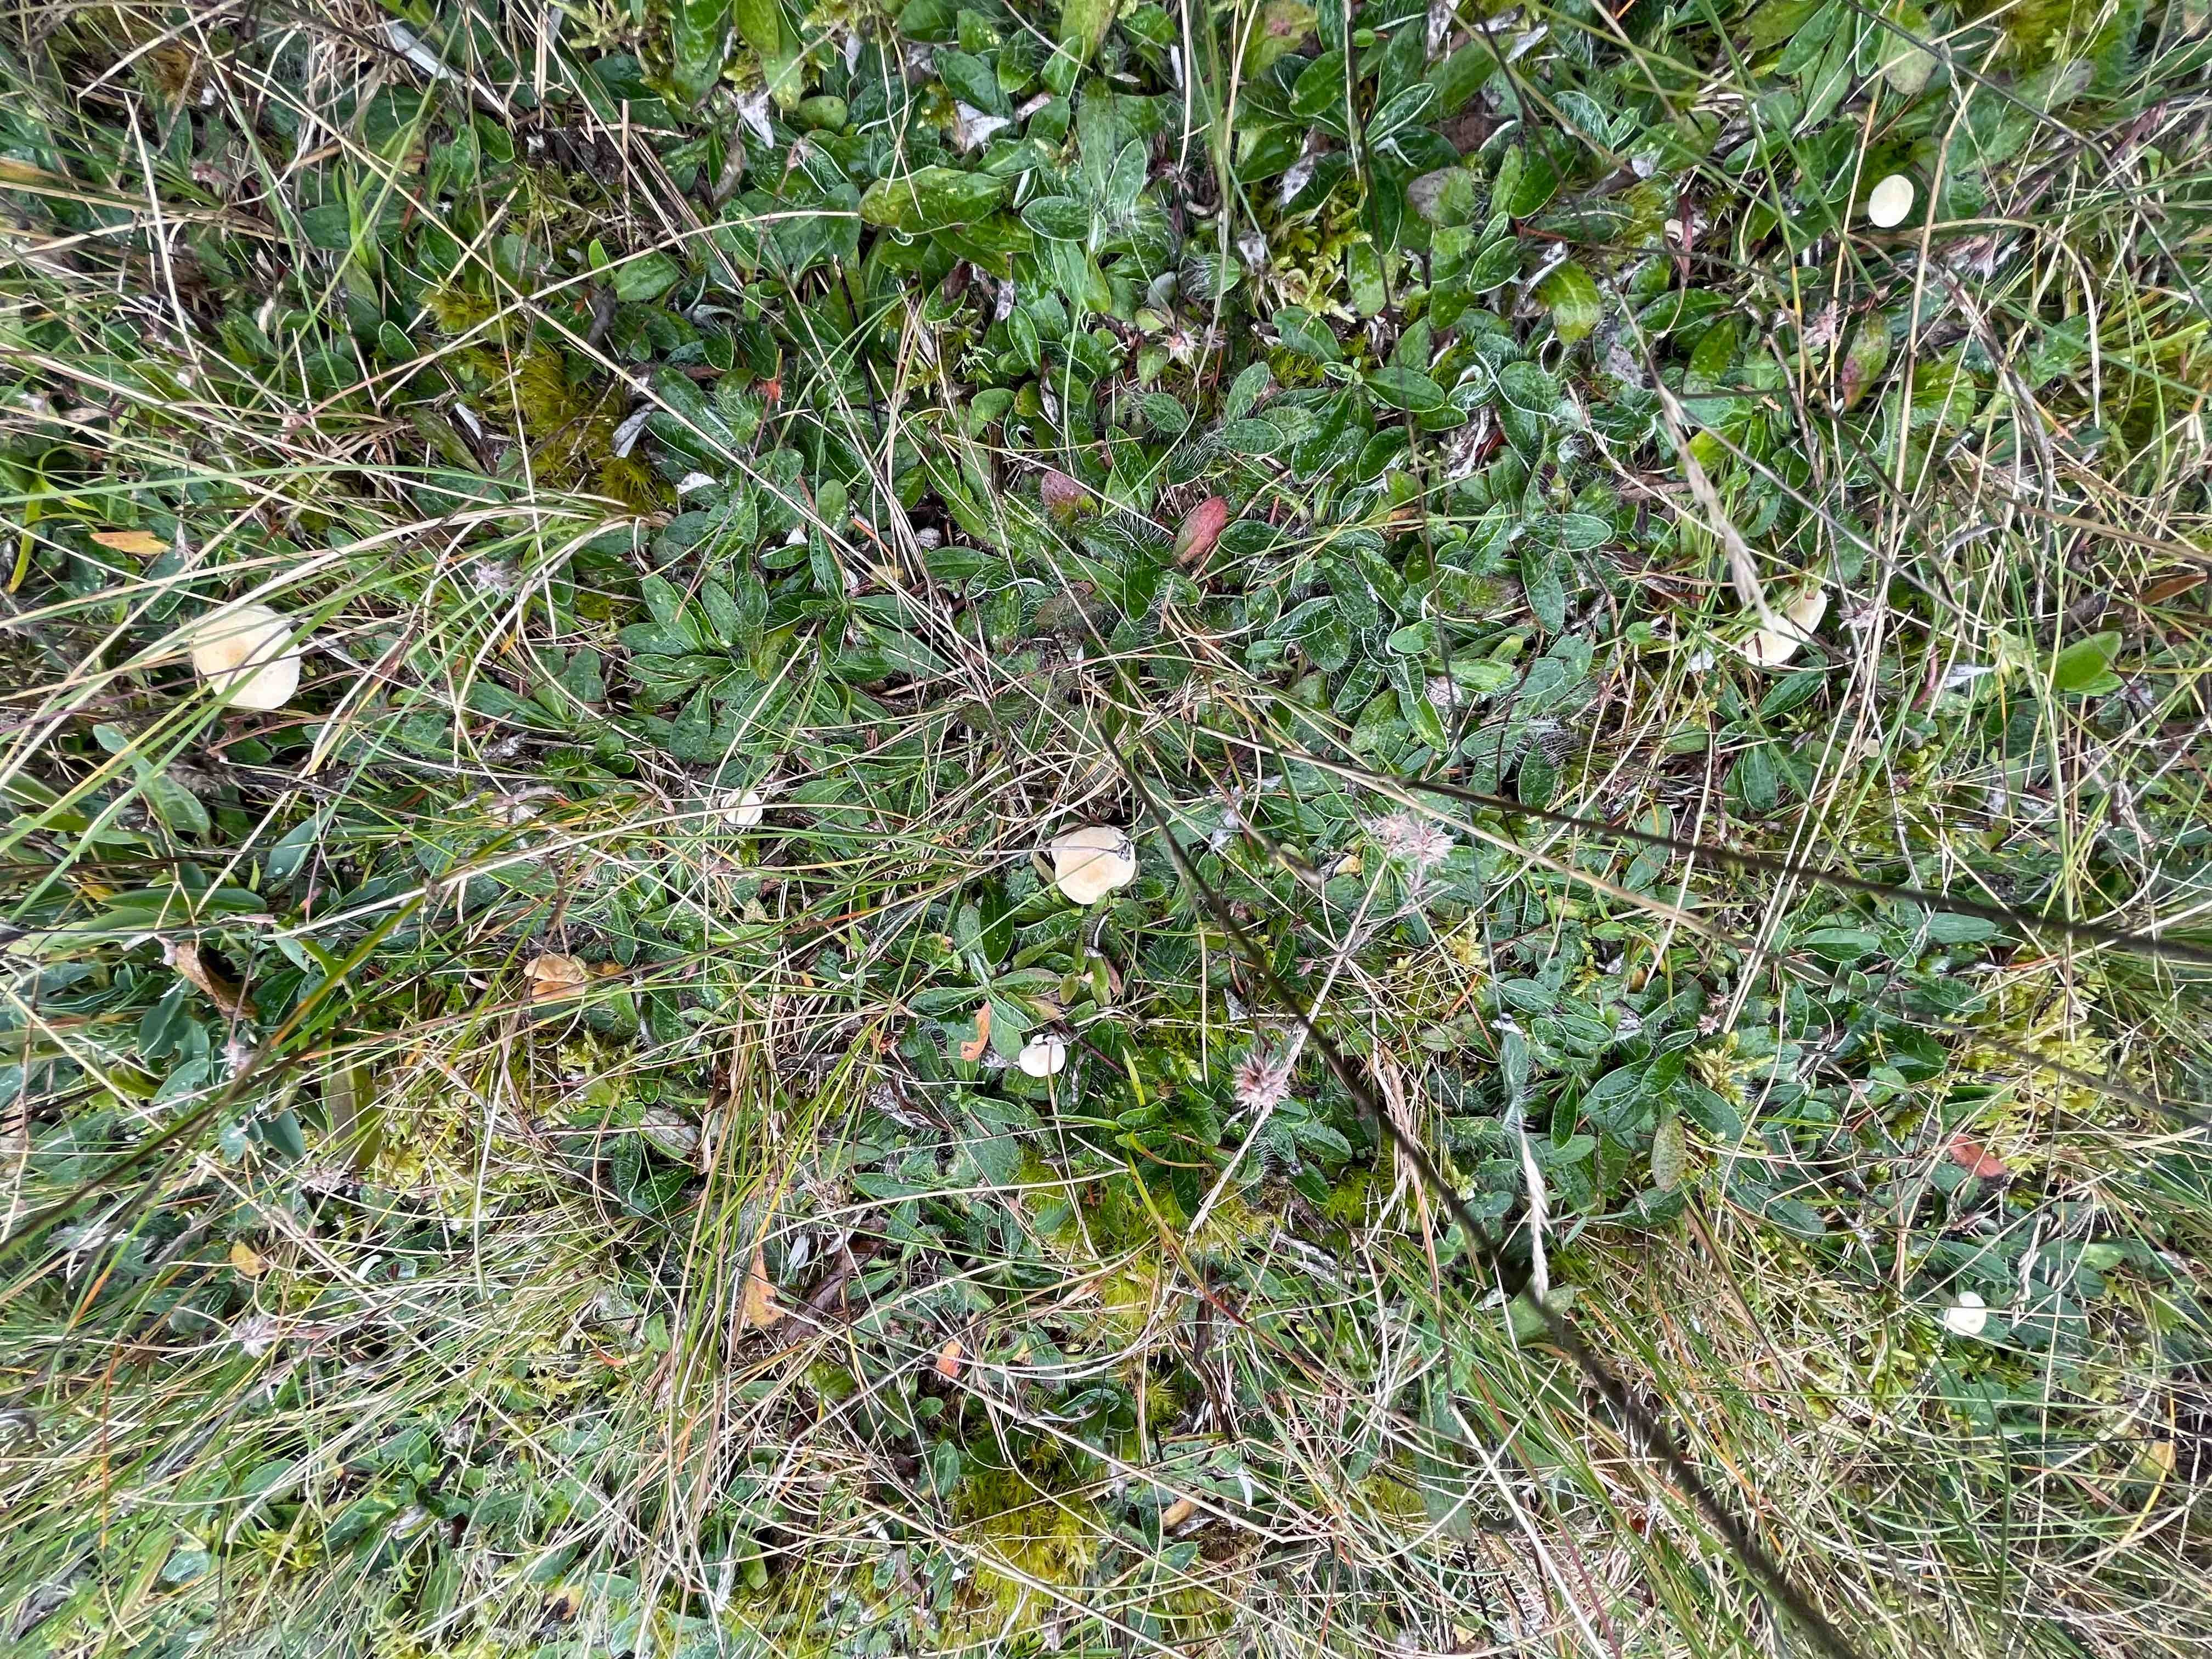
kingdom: Fungi
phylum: Basidiomycota
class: Agaricomycetes
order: Agaricales
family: Entolomataceae
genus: Entoloma
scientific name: Entoloma sericellum
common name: silkehvid rødblad
